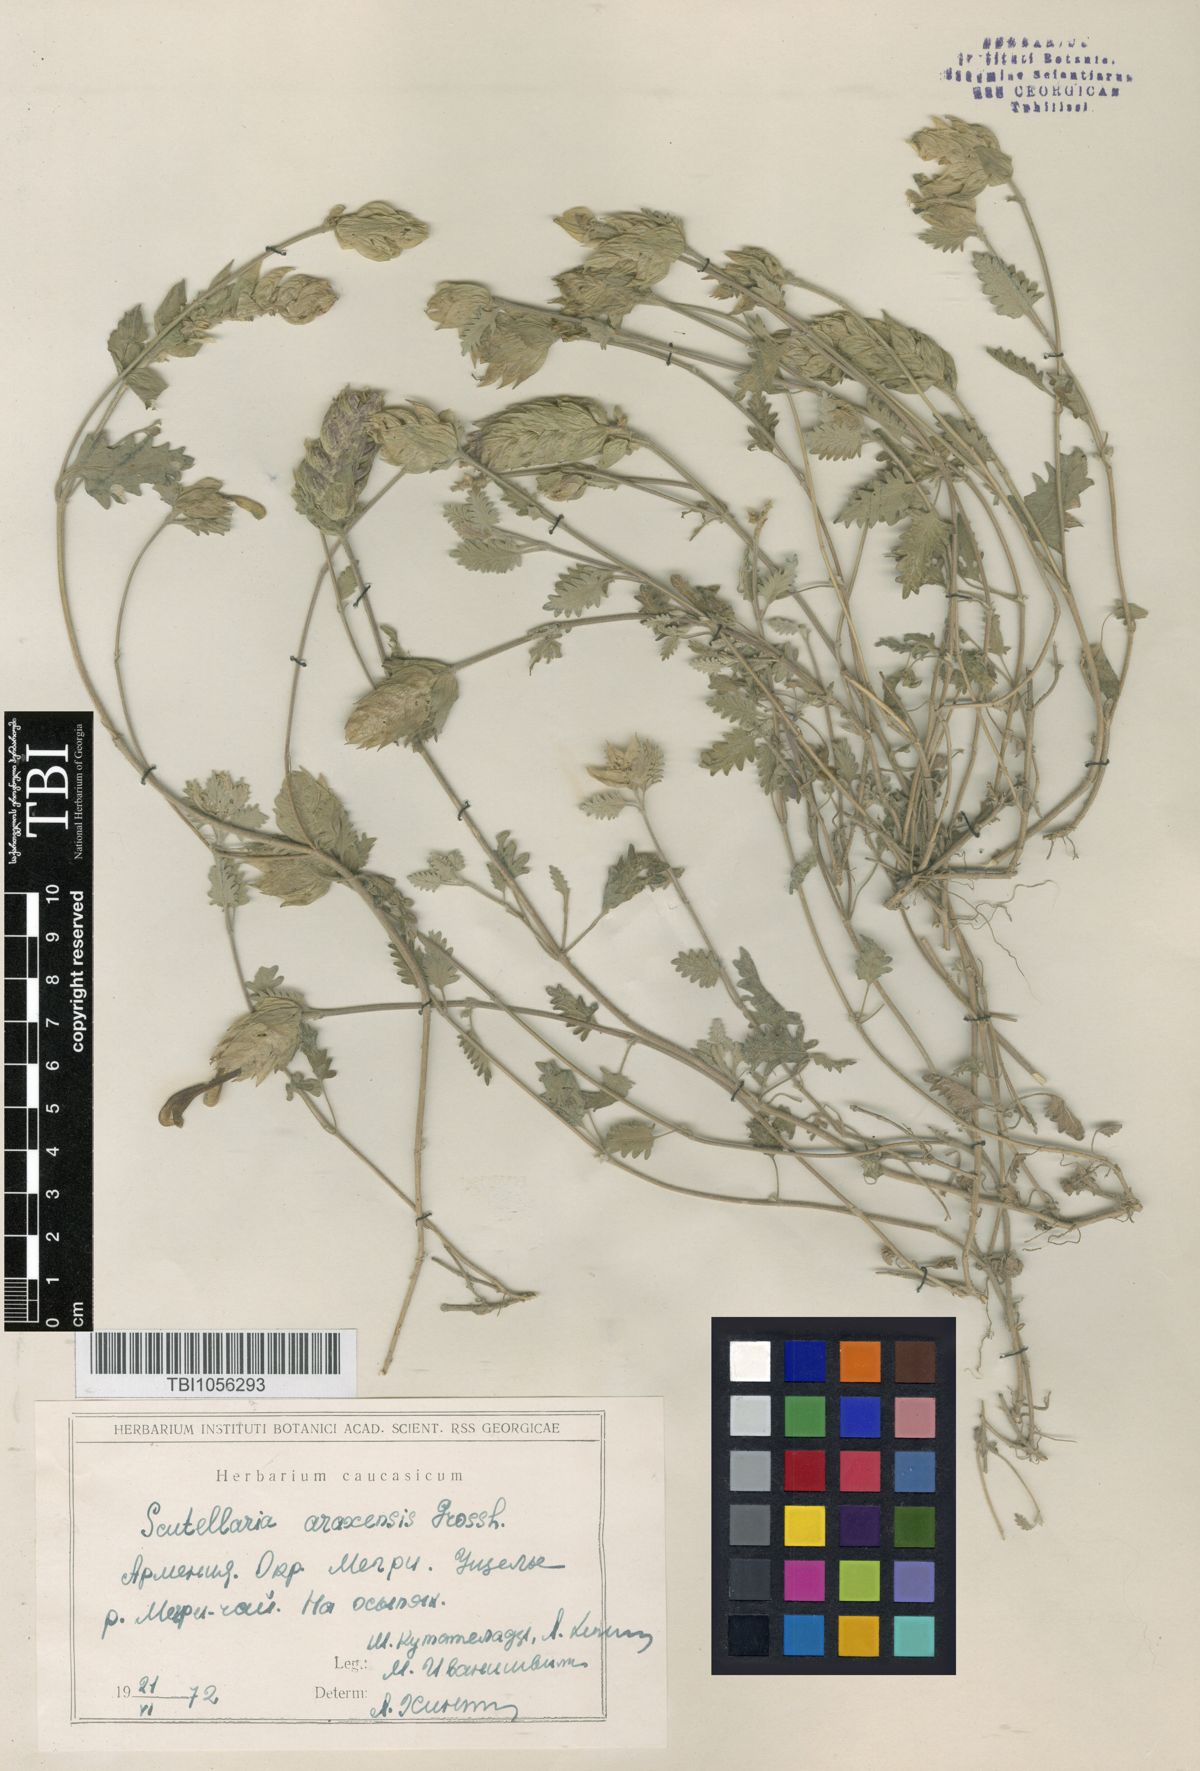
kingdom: Plantae
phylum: Tracheophyta
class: Magnoliopsida
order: Lamiales
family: Lamiaceae
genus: Scutellaria
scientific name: Scutellaria araxensis
